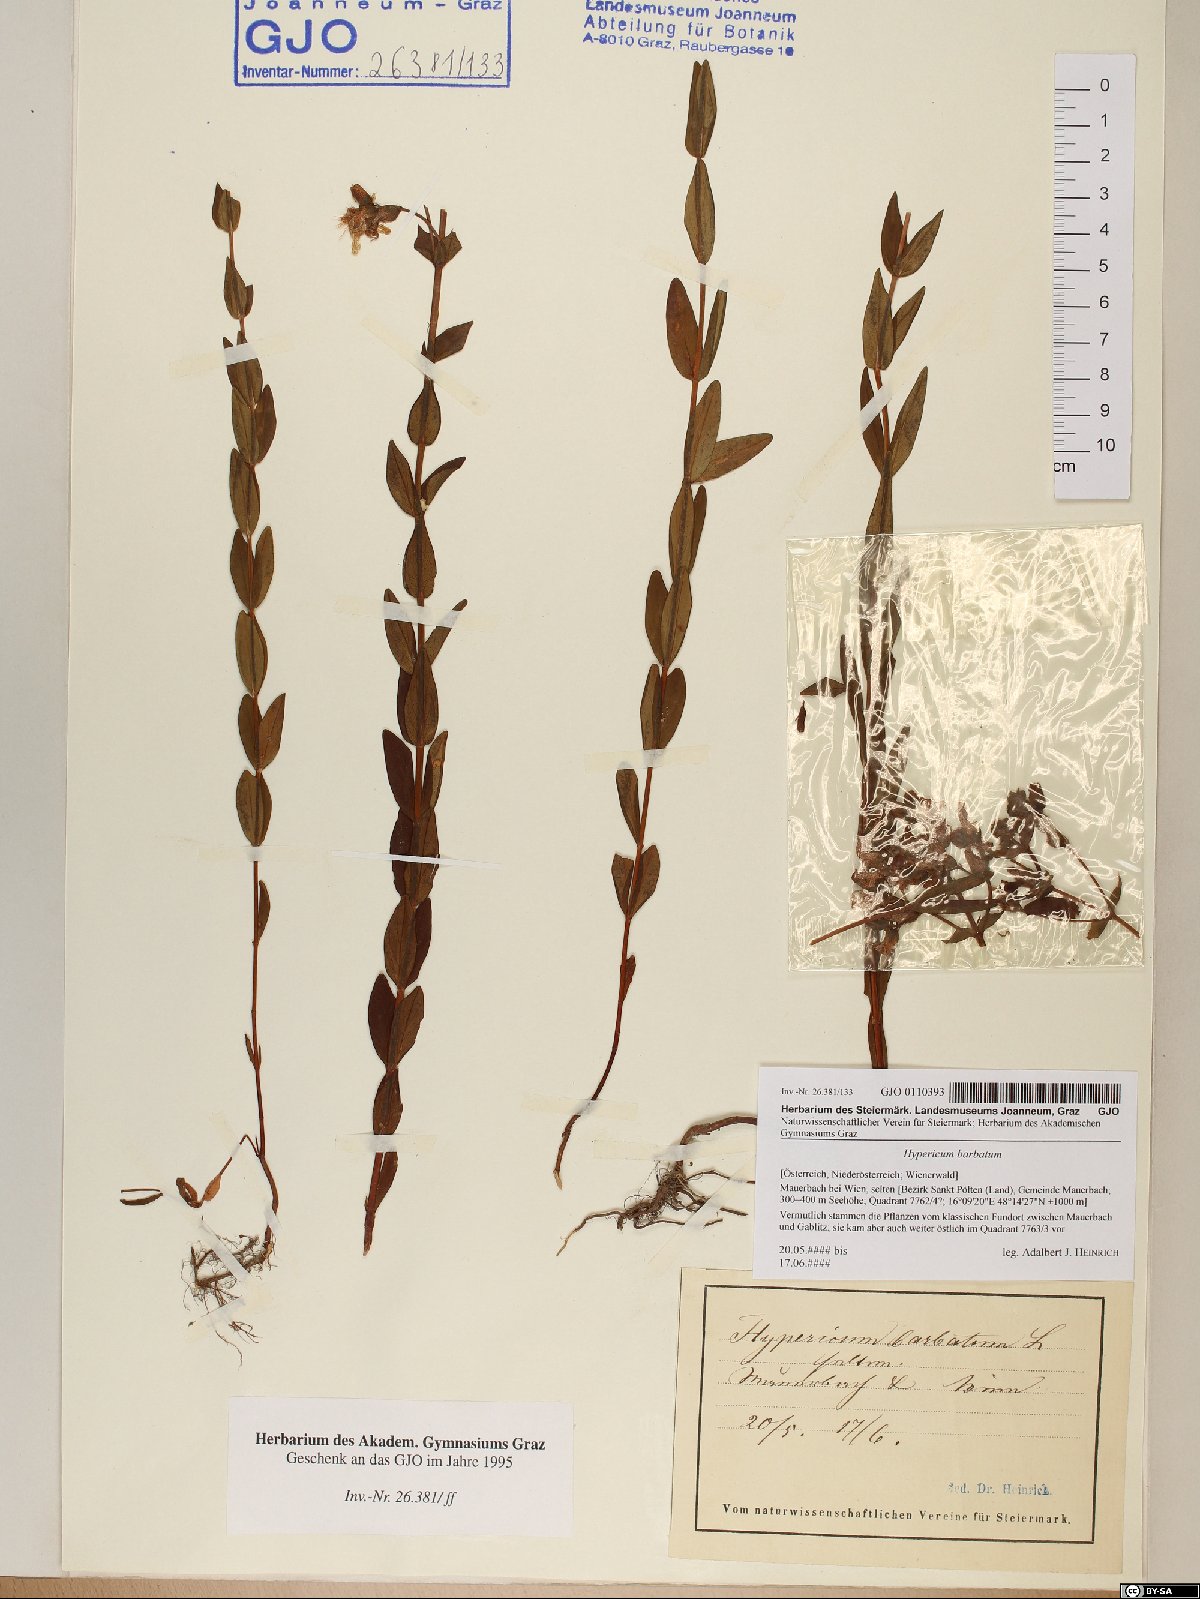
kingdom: Plantae
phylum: Tracheophyta
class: Magnoliopsida
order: Malpighiales
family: Hypericaceae
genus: Hypericum
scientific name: Hypericum barbatum
